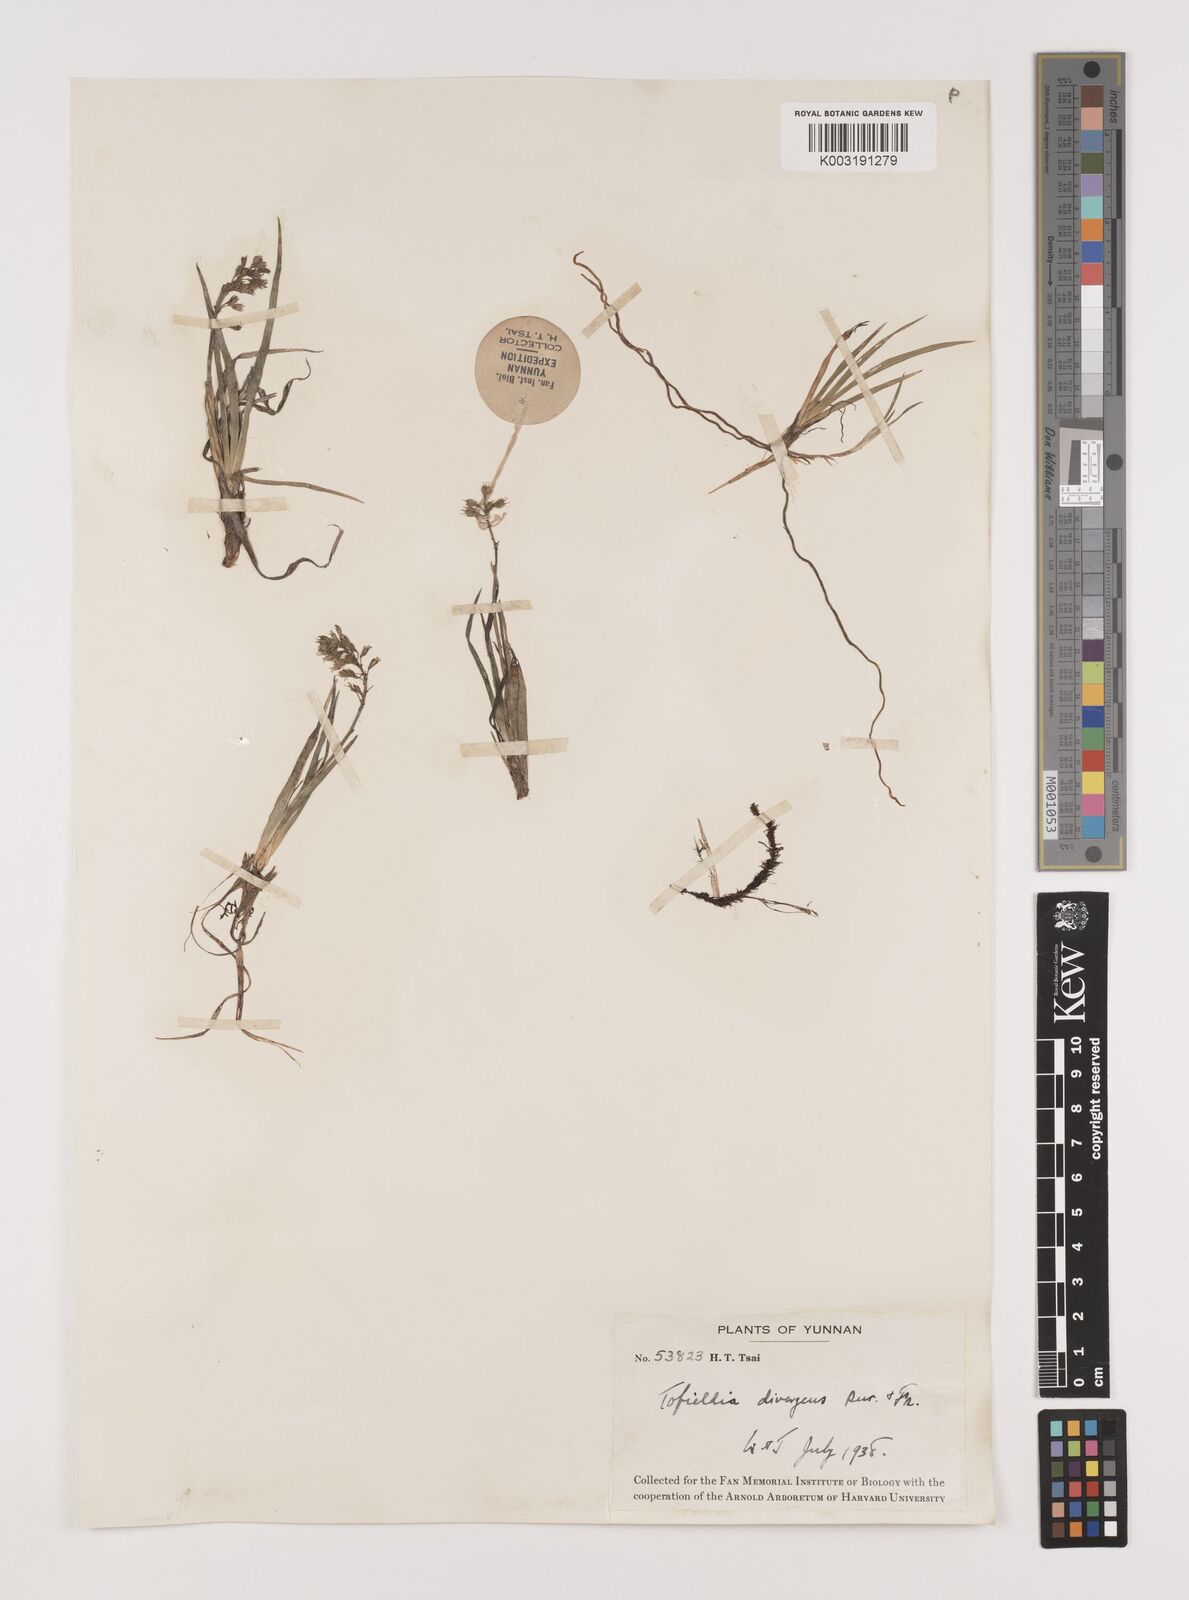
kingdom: Plantae
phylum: Tracheophyta
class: Liliopsida
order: Alismatales
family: Tofieldiaceae
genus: Tofieldia
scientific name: Tofieldia divergens
